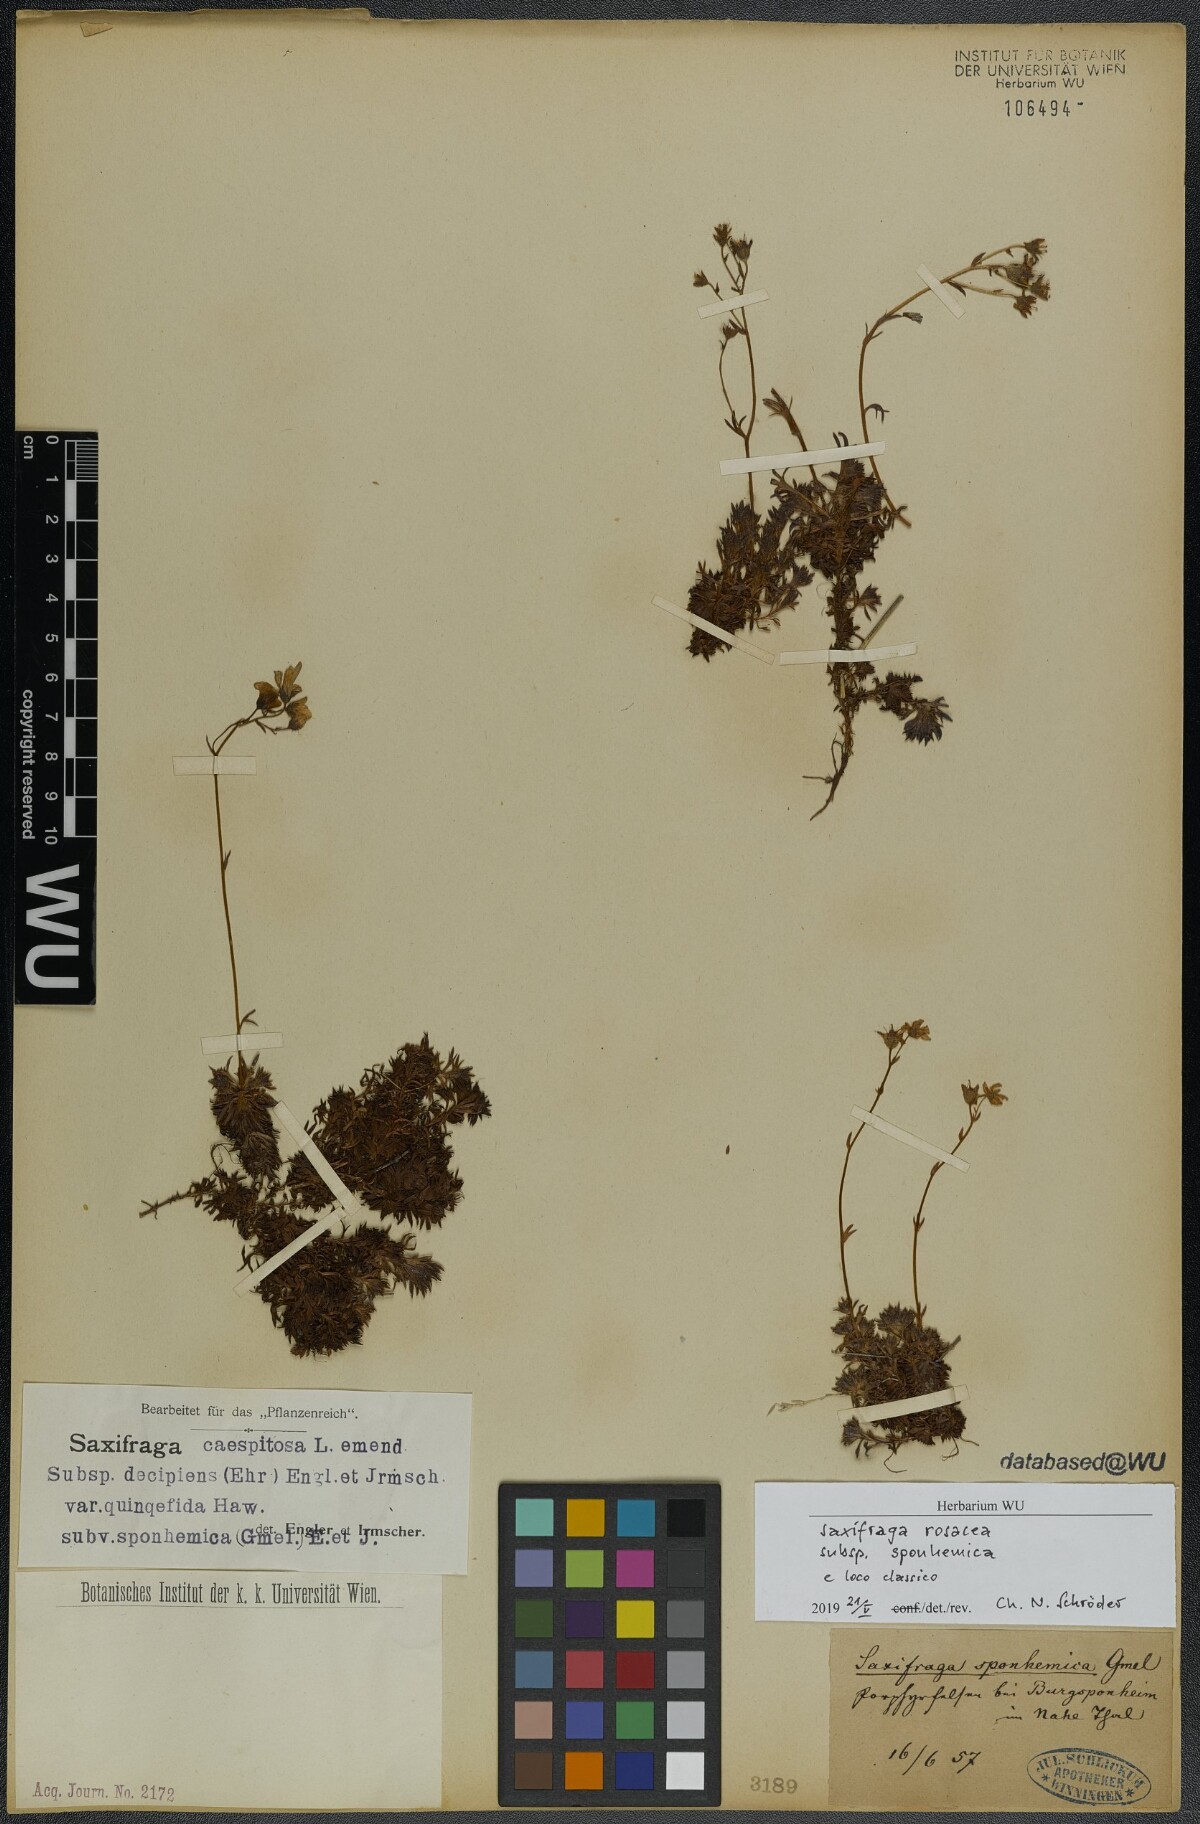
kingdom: Plantae
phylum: Tracheophyta
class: Magnoliopsida
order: Saxifragales
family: Saxifragaceae
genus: Saxifraga
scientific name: Saxifraga rosacea
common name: Irish saxifrage
